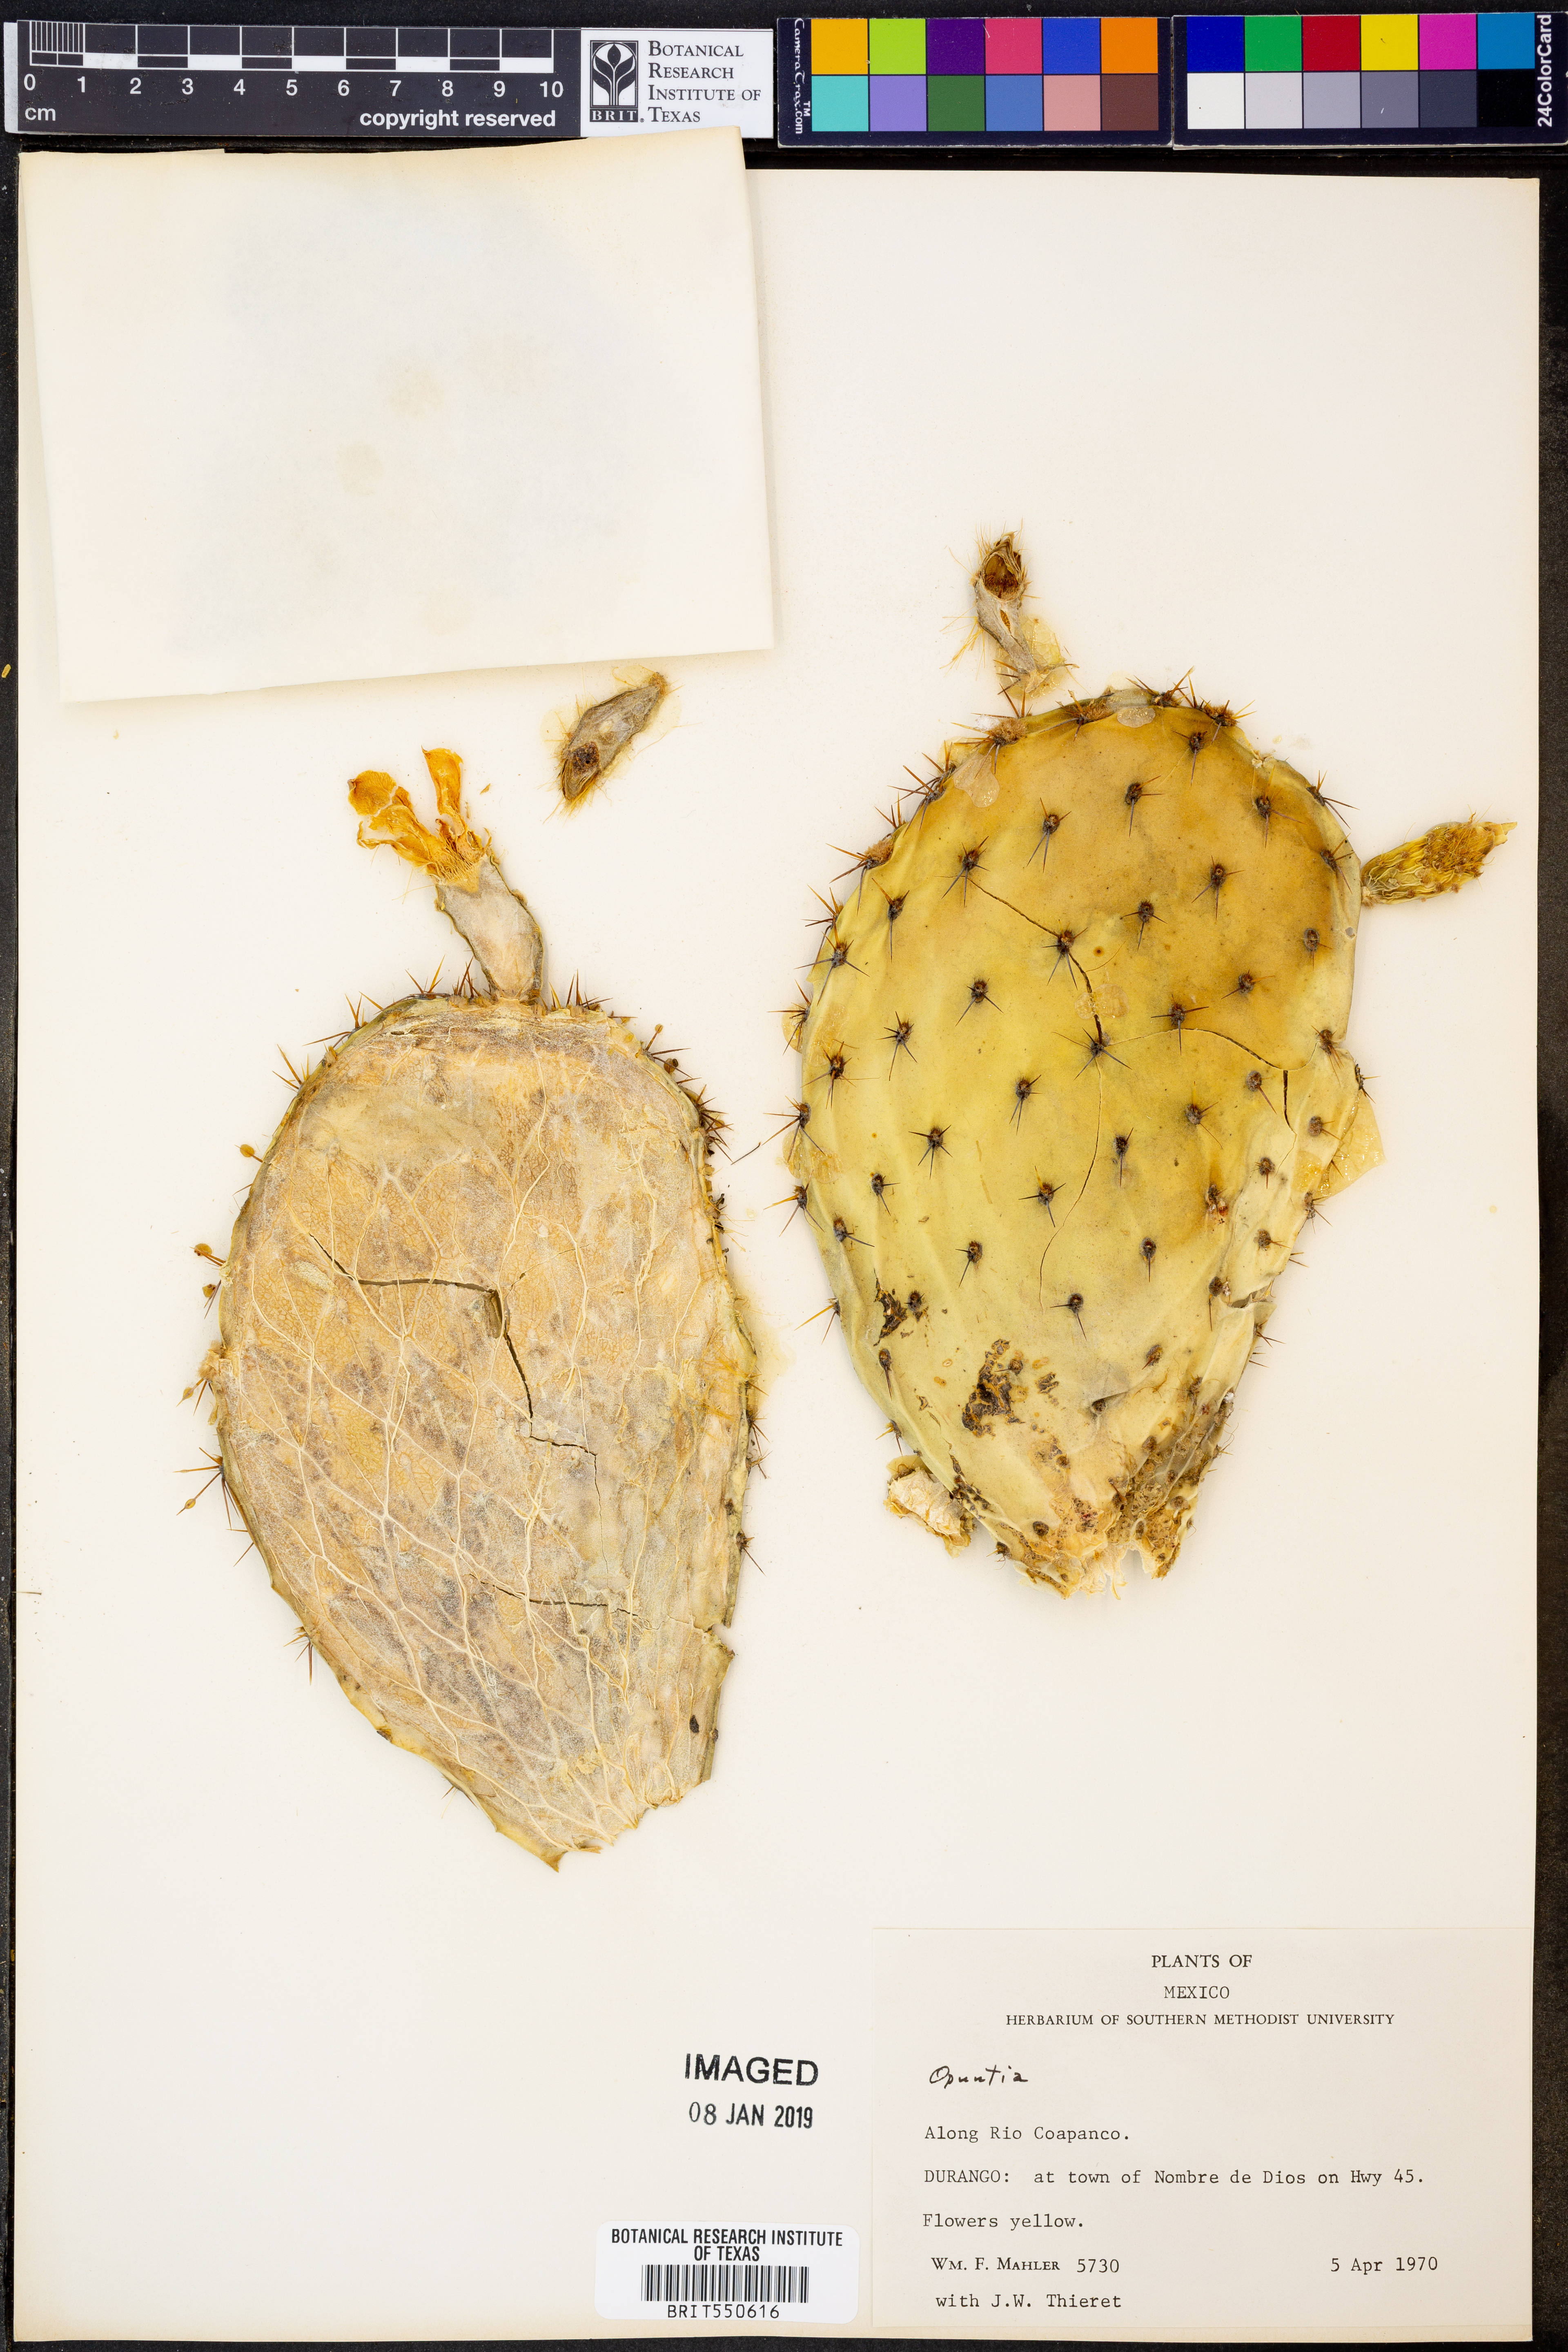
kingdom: Plantae
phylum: Tracheophyta
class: Magnoliopsida
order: Caryophyllales
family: Cactaceae
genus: Opuntia
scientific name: Opuntia
